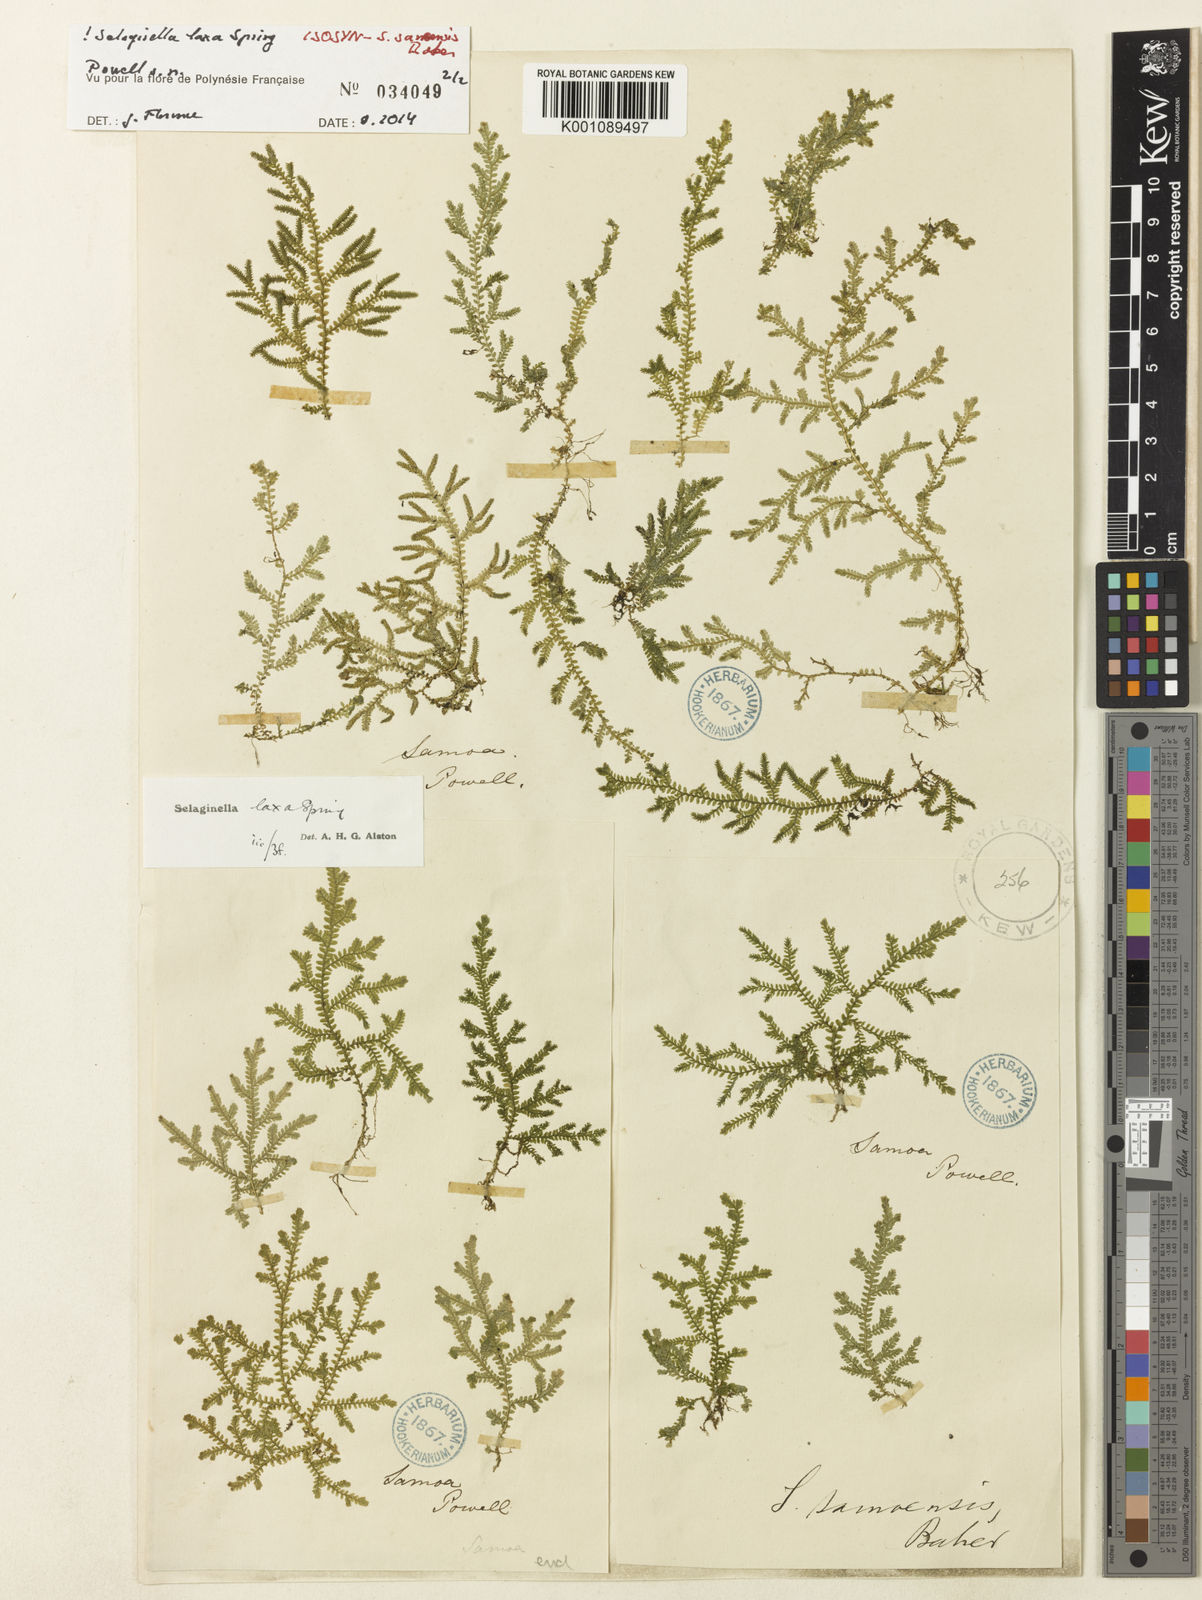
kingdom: Plantae
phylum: Tracheophyta
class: Lycopodiopsida
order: Selaginellales
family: Selaginellaceae
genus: Selaginella
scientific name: Selaginella laxa
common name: Lax spikemoss
